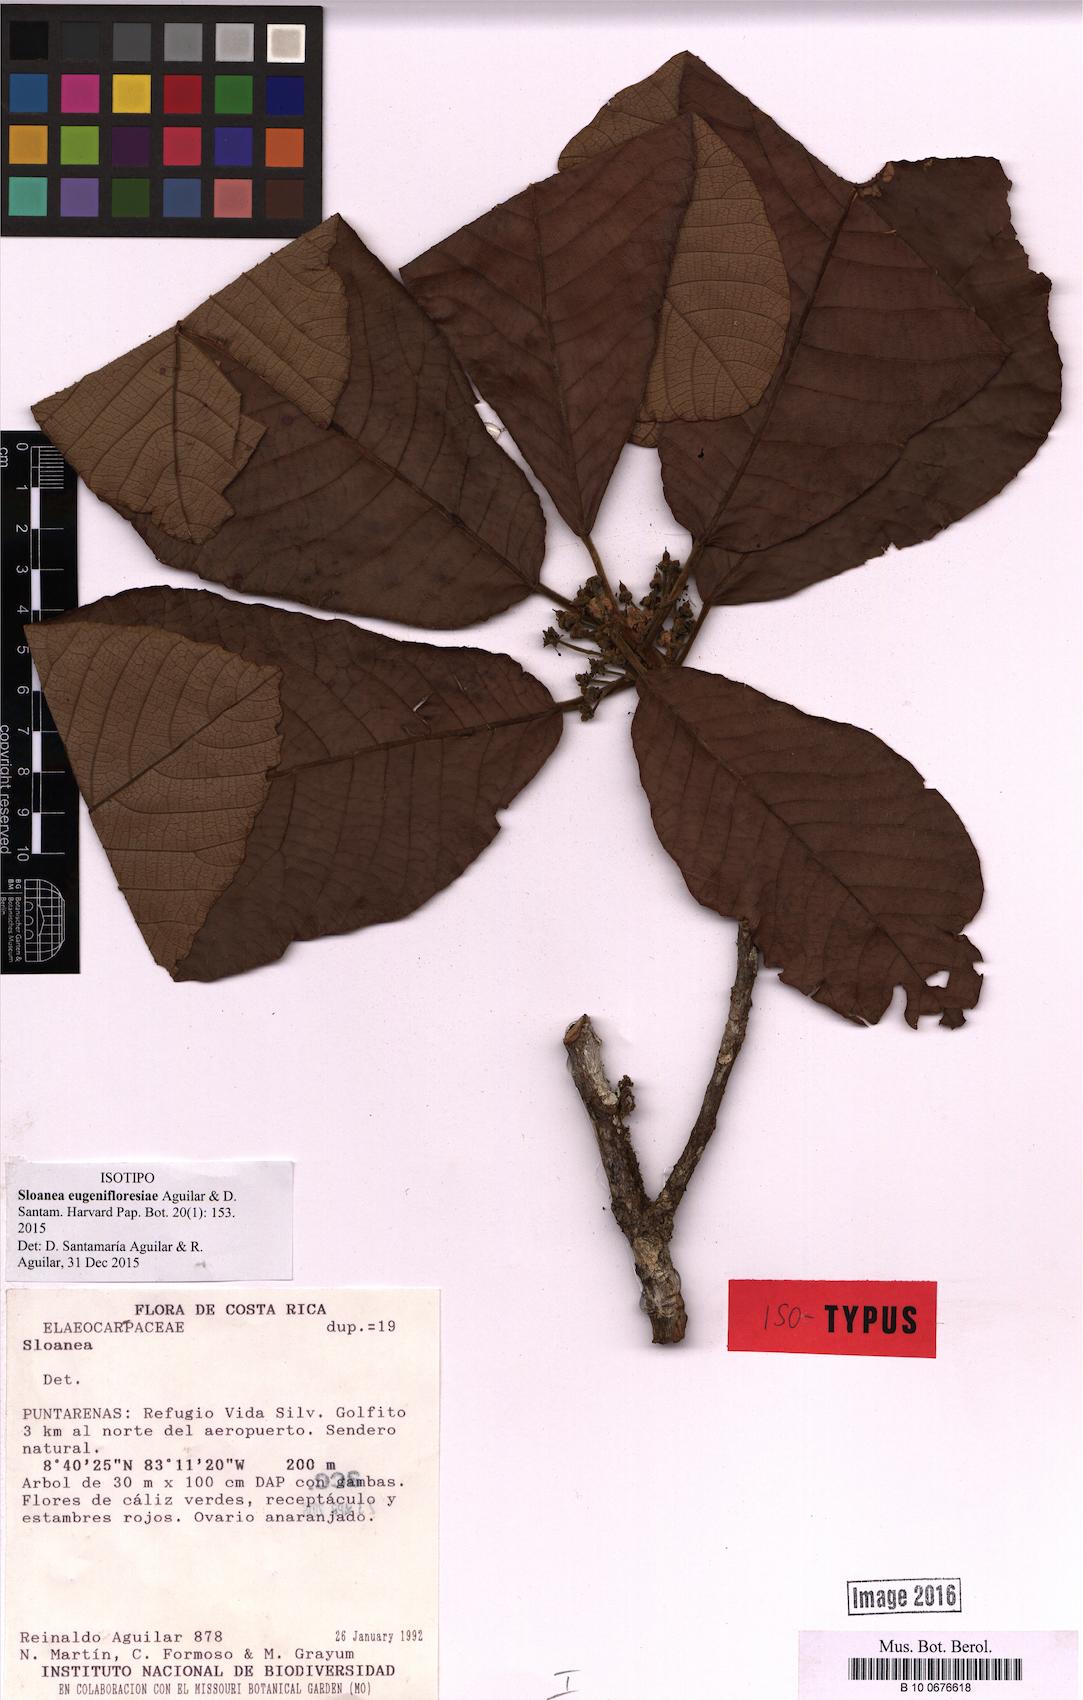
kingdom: Plantae
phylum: Tracheophyta
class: Magnoliopsida
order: Oxalidales
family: Elaeocarpaceae
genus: Sloanea
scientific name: Sloanea eugenifloresiae
